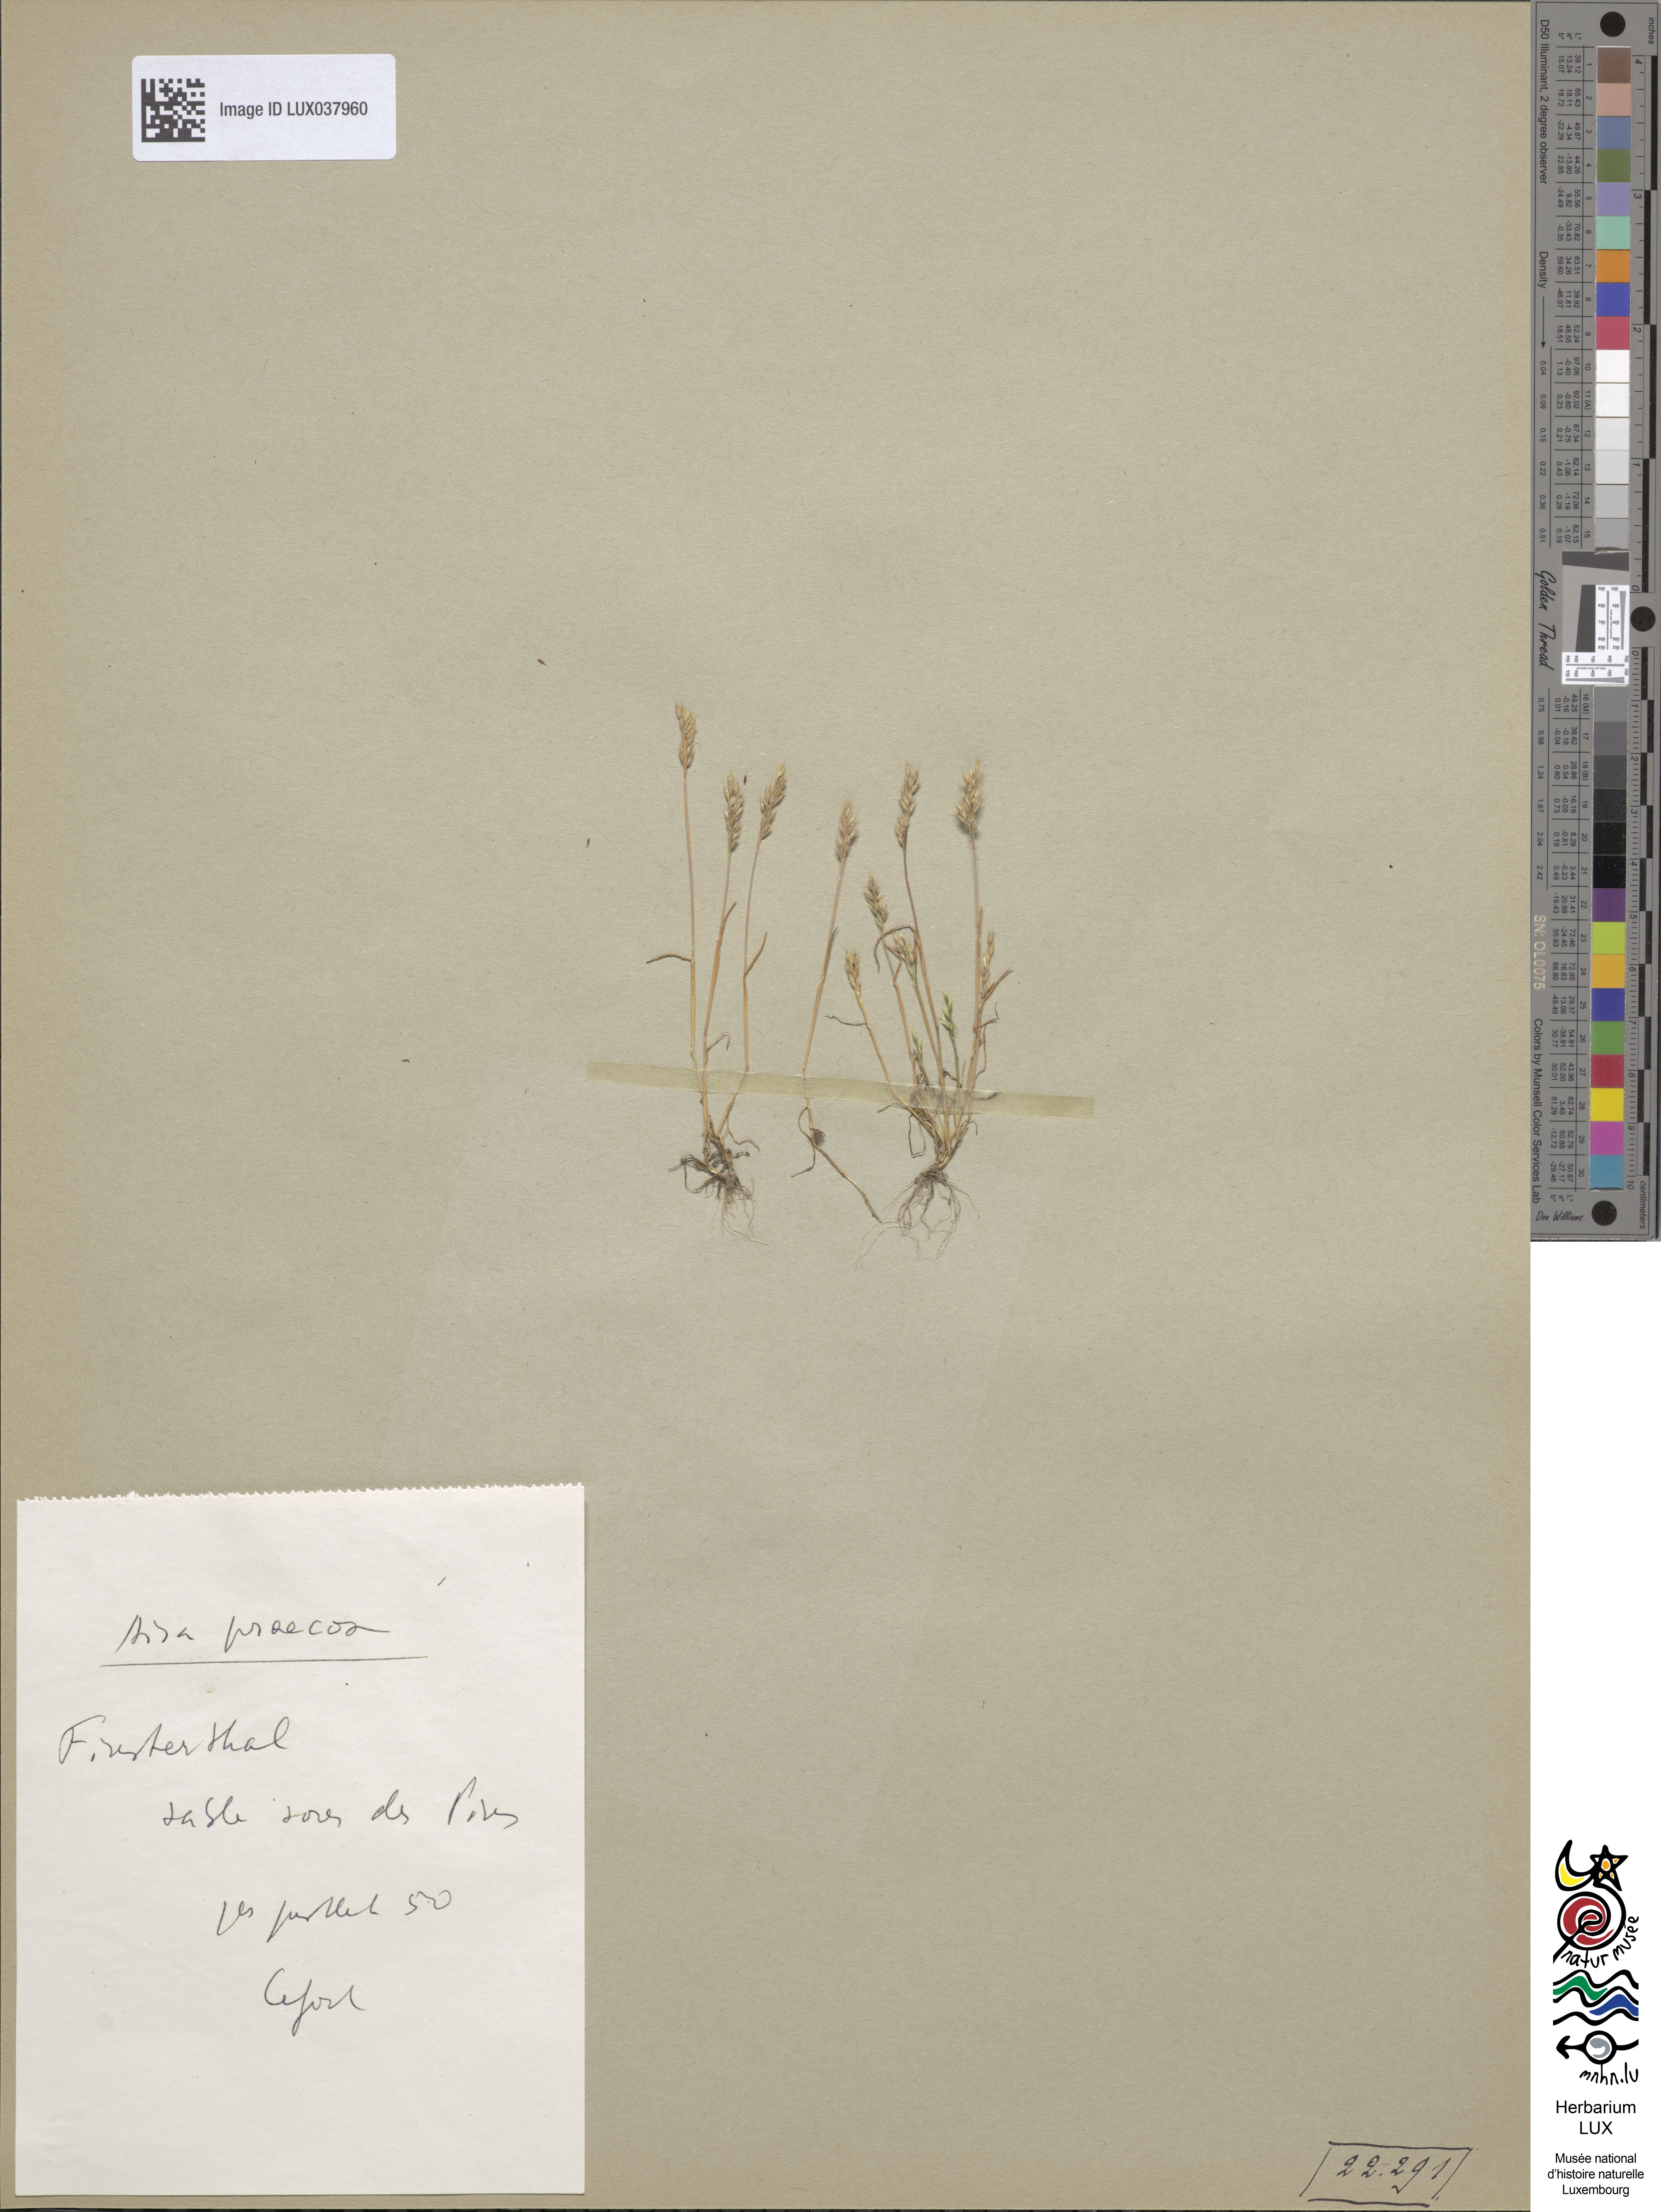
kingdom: Plantae
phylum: Tracheophyta
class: Liliopsida
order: Poales
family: Poaceae
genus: Aira
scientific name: Aira praecox
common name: Early hair-grass
